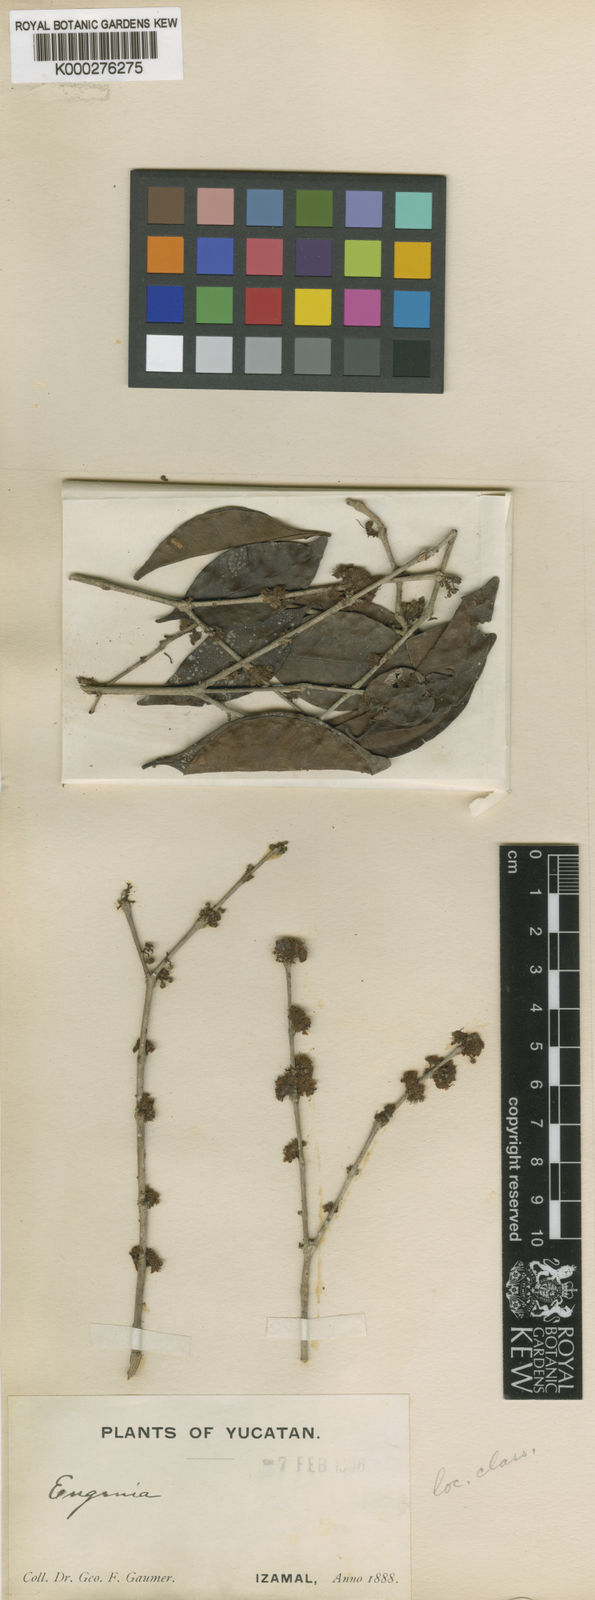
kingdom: Plantae
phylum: Tracheophyta
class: Magnoliopsida
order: Myrtales
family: Myrtaceae
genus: Eugenia
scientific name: Eugenia foetida
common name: White wattling
